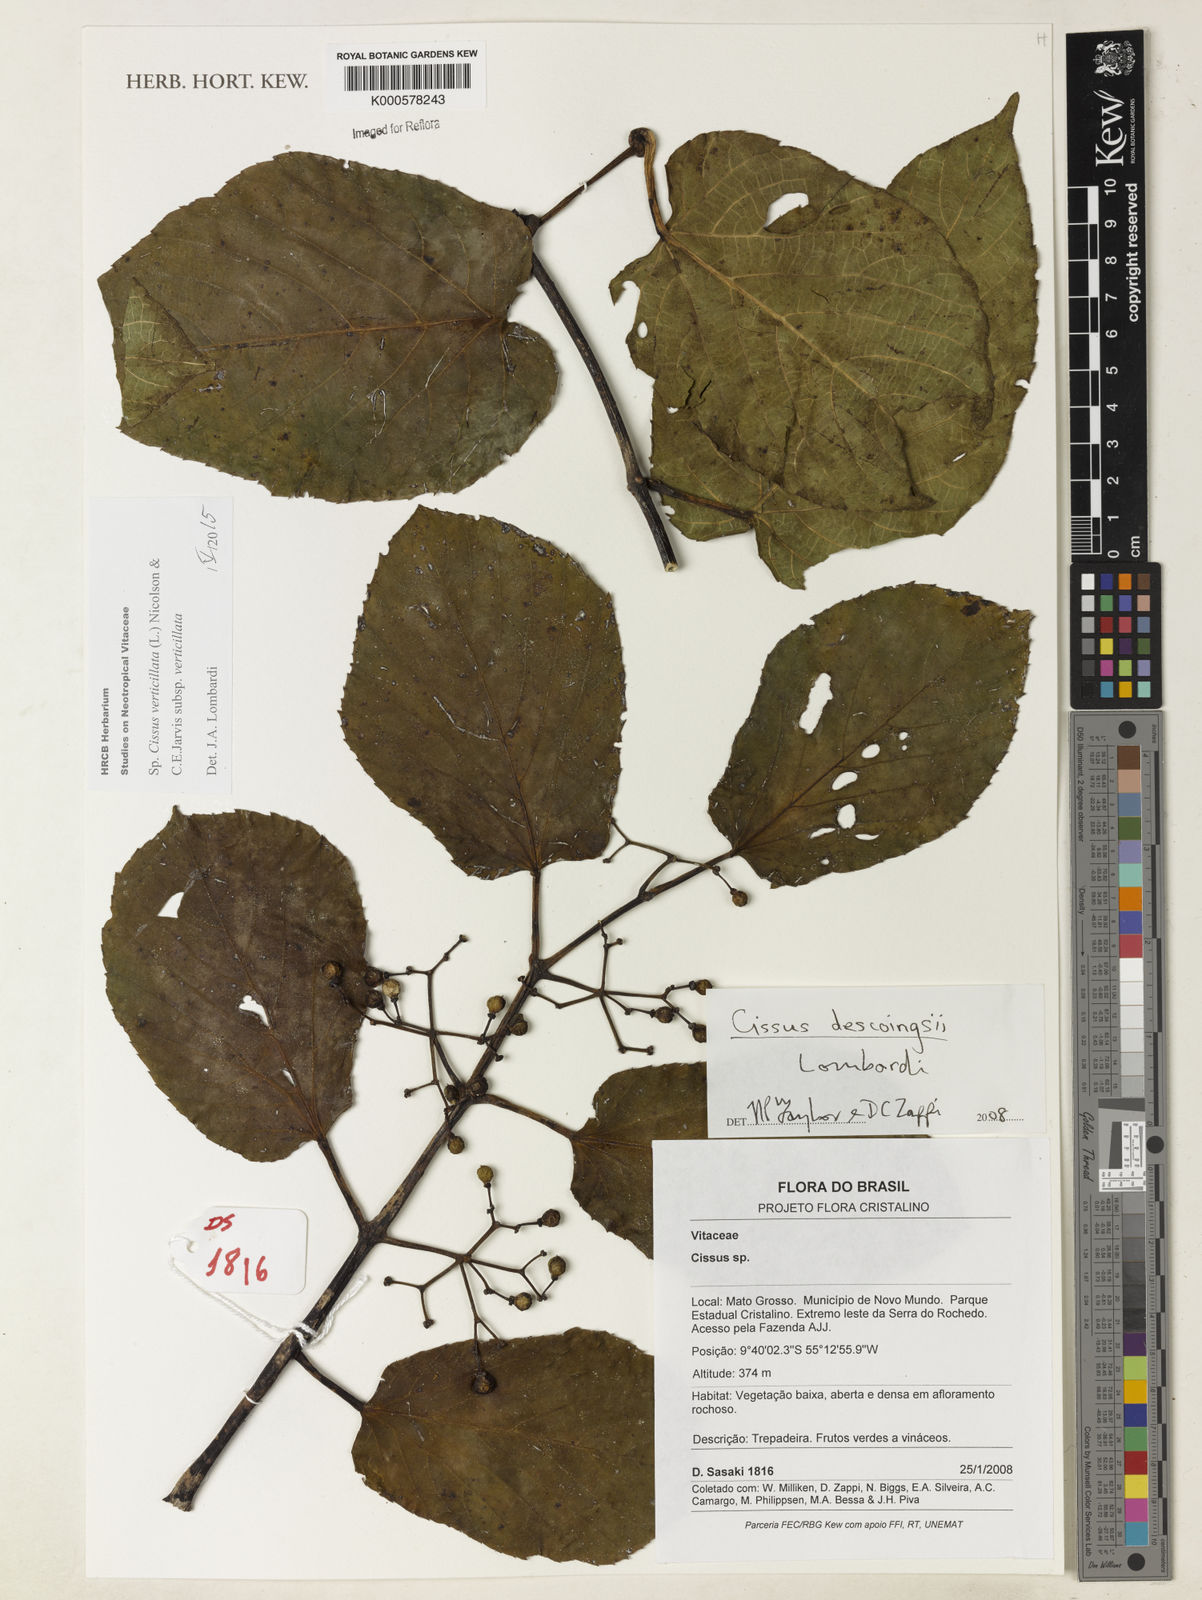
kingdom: Plantae
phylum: Tracheophyta
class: Magnoliopsida
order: Vitales
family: Vitaceae
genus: Cissus
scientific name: Cissus verticillata
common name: Princess vine
